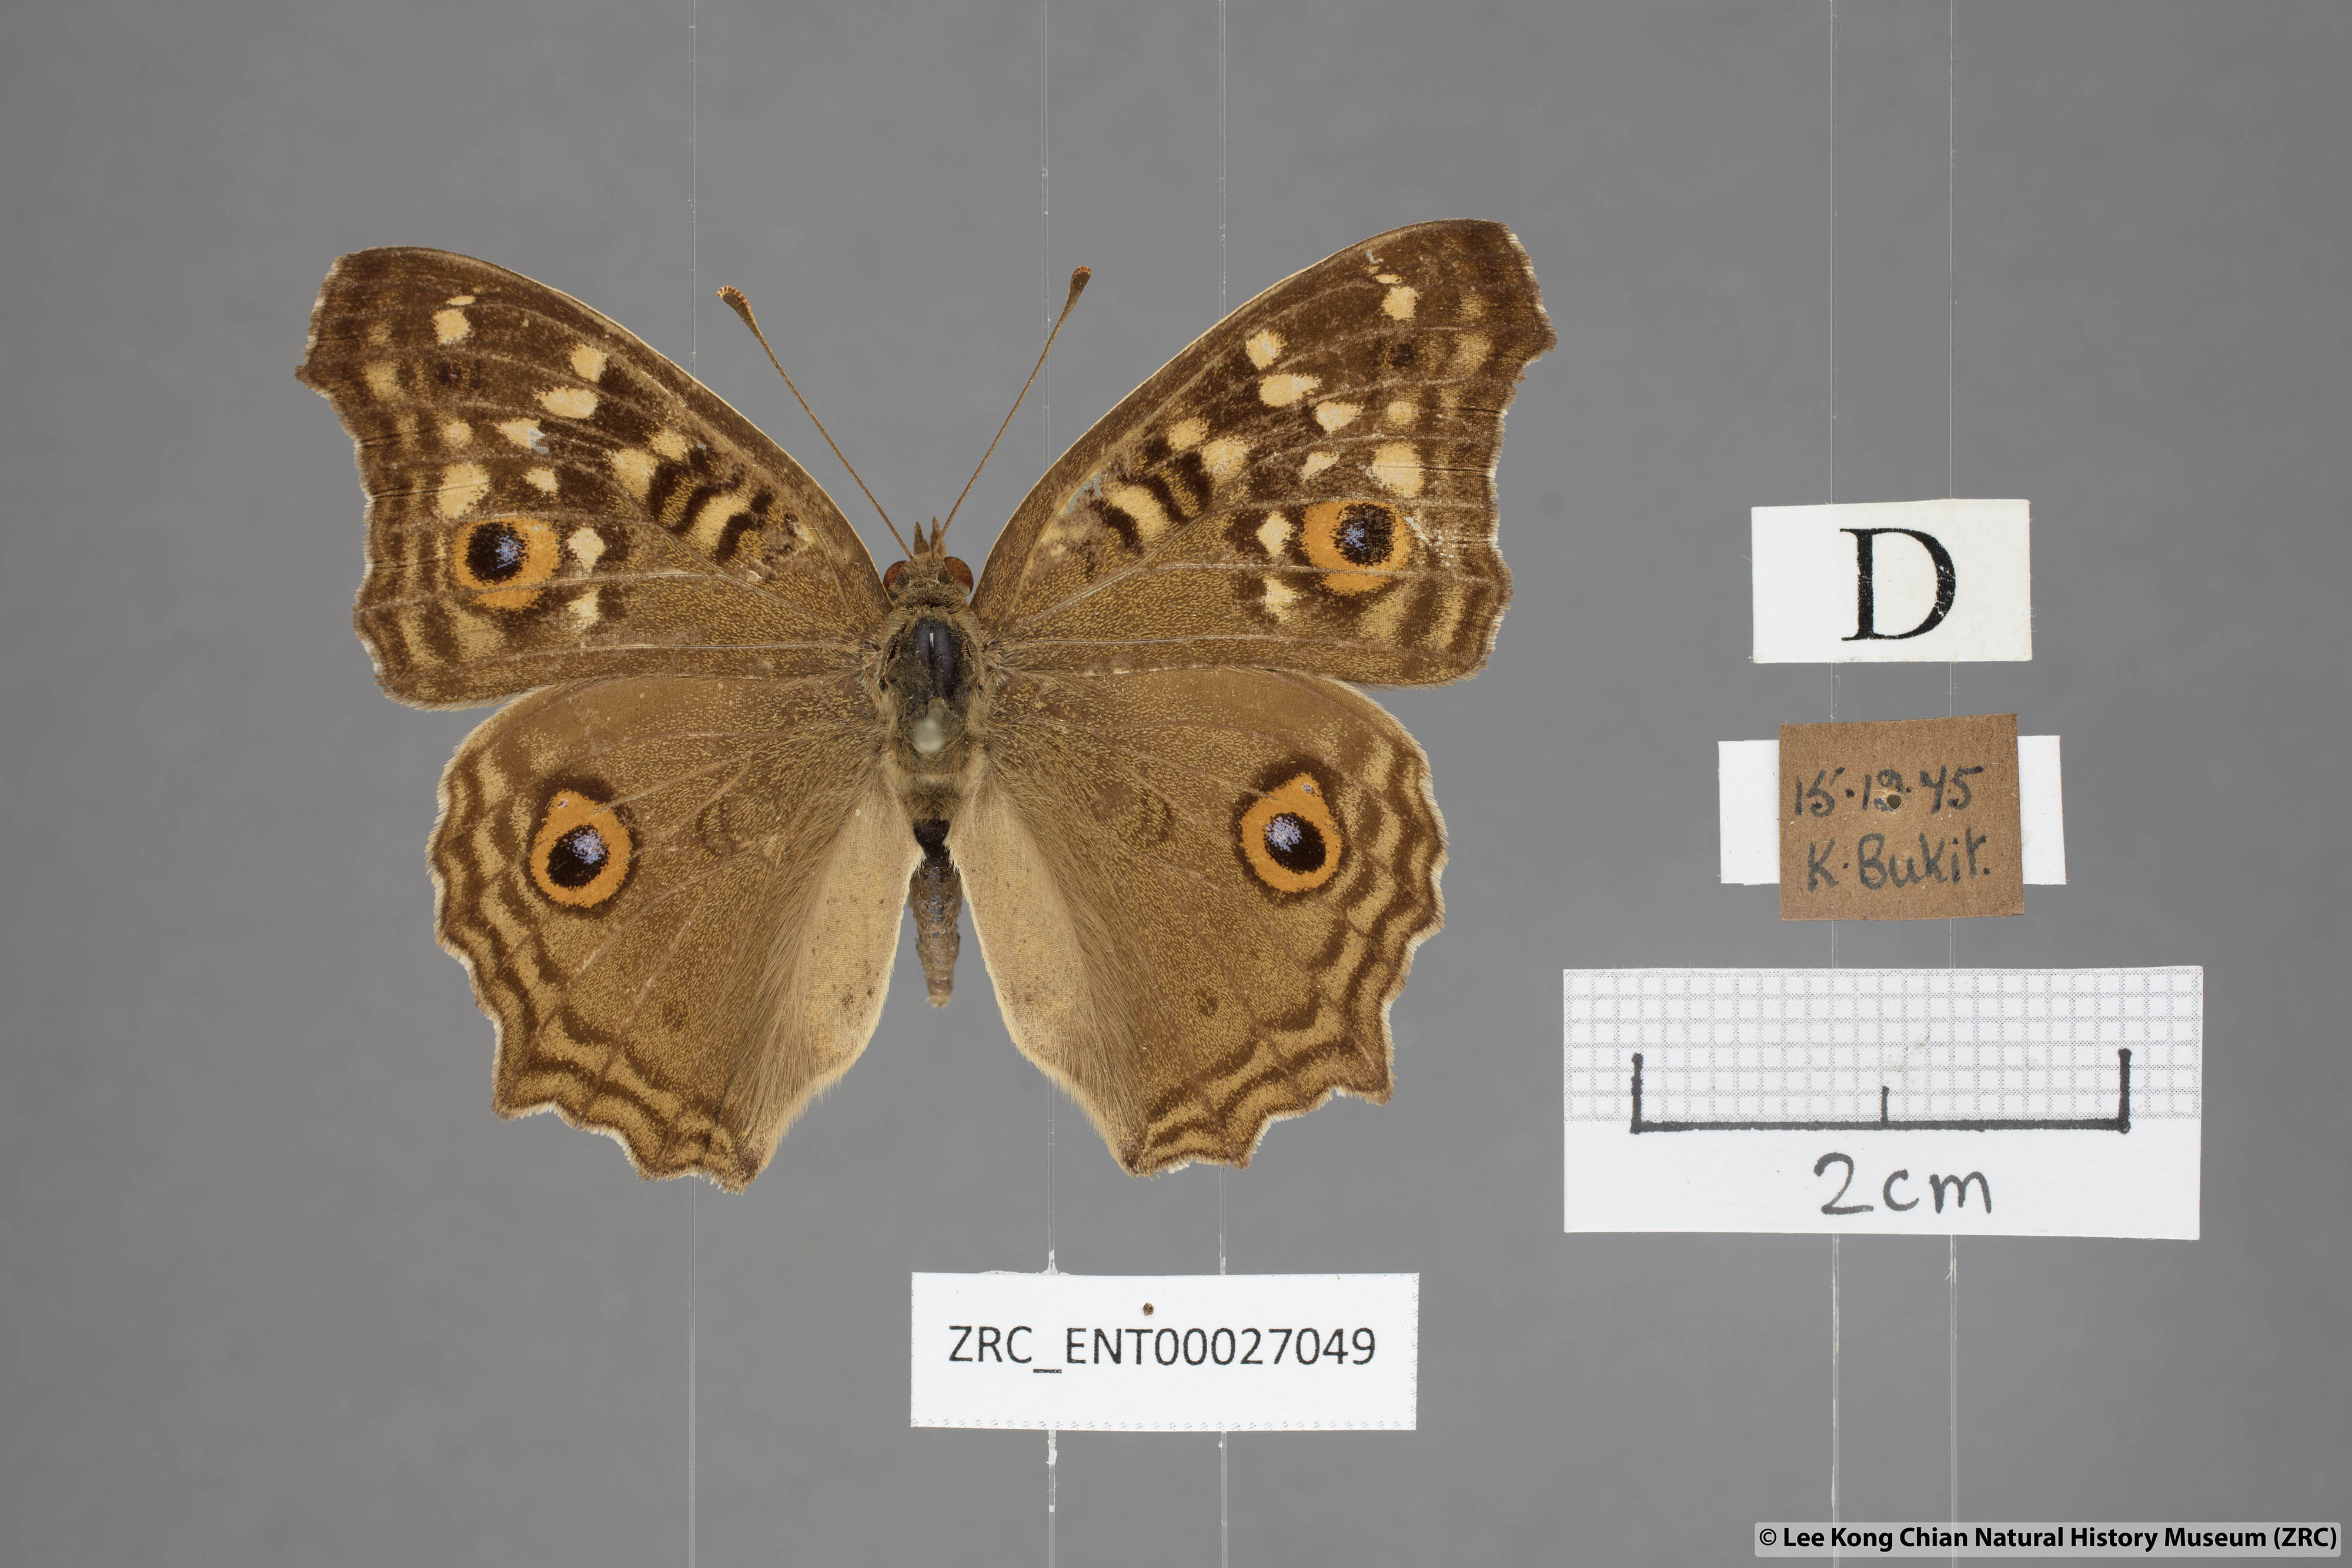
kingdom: Animalia
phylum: Arthropoda
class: Insecta
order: Lepidoptera
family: Nymphalidae
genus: Junonia
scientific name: Junonia lemonias
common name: Lemon pansy
